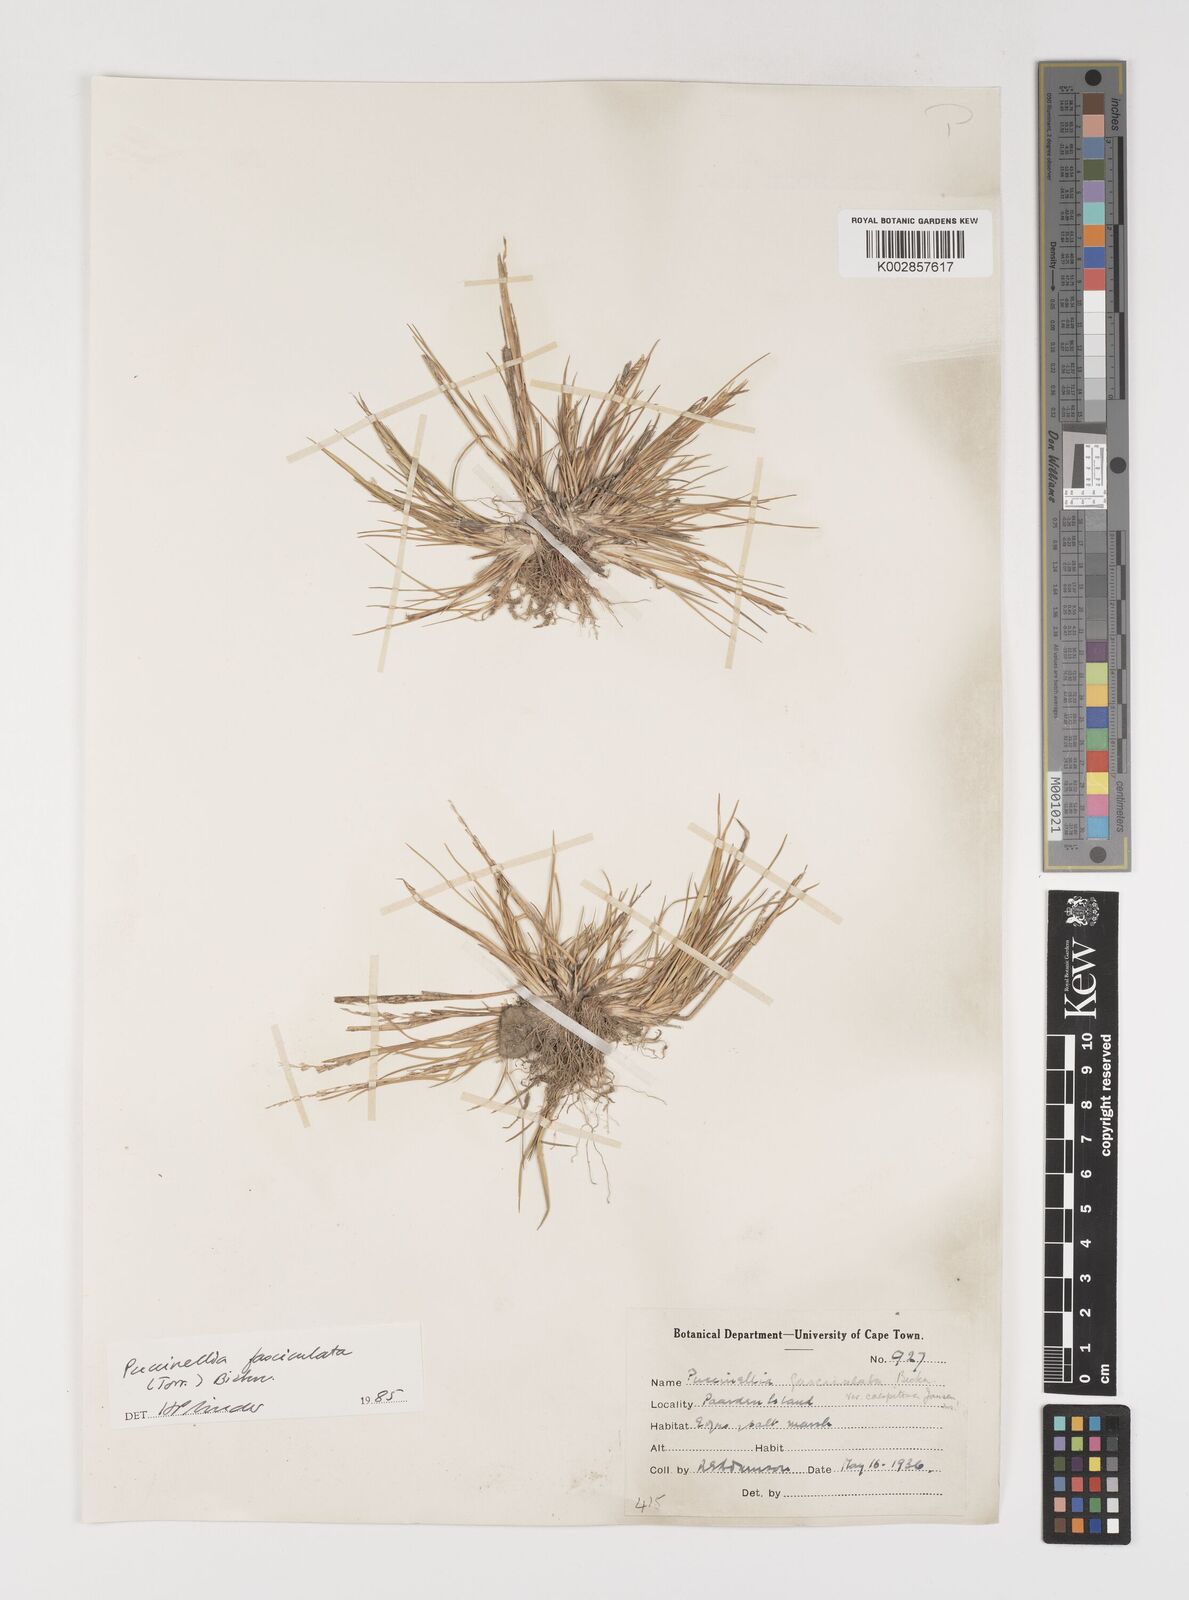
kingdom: Plantae
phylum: Tracheophyta
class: Liliopsida
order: Poales
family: Poaceae
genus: Puccinellia
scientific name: Puccinellia fasciculata
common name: Borrer's saltmarsh-grass
